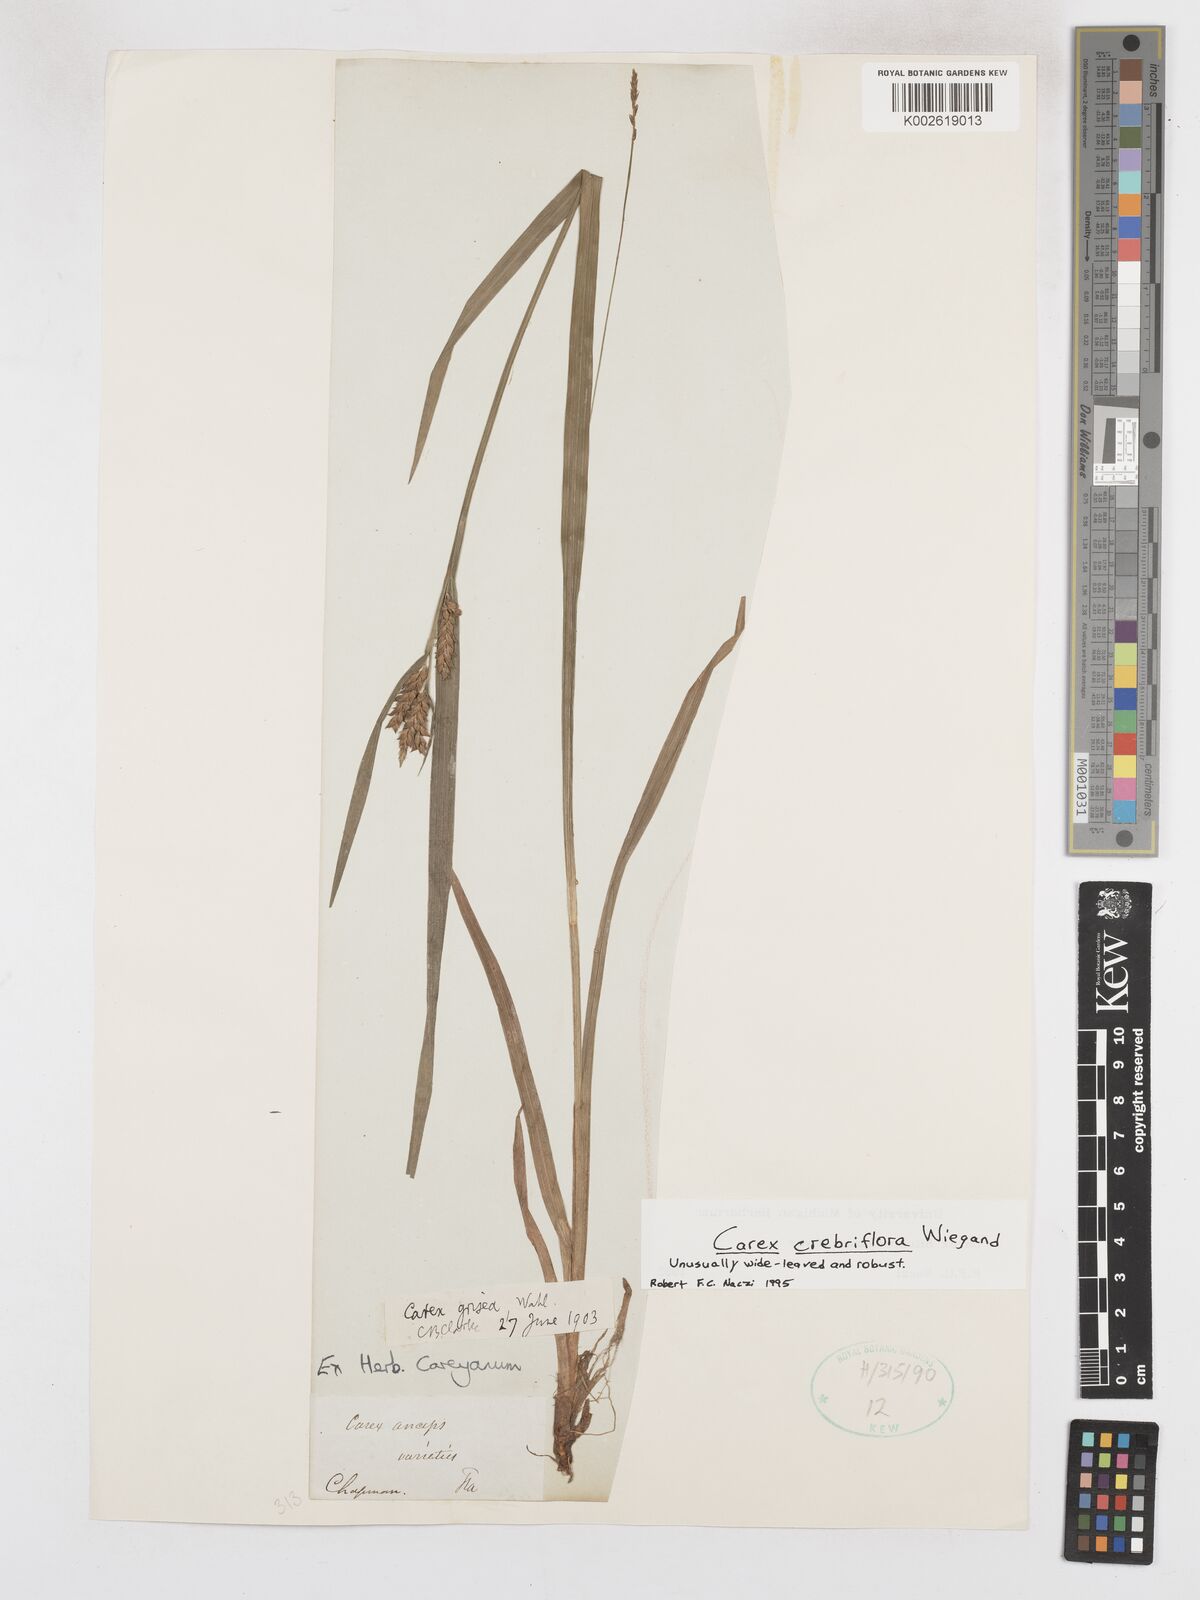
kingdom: Plantae
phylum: Tracheophyta
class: Liliopsida
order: Poales
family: Cyperaceae
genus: Carex
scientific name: Carex crebriflora
